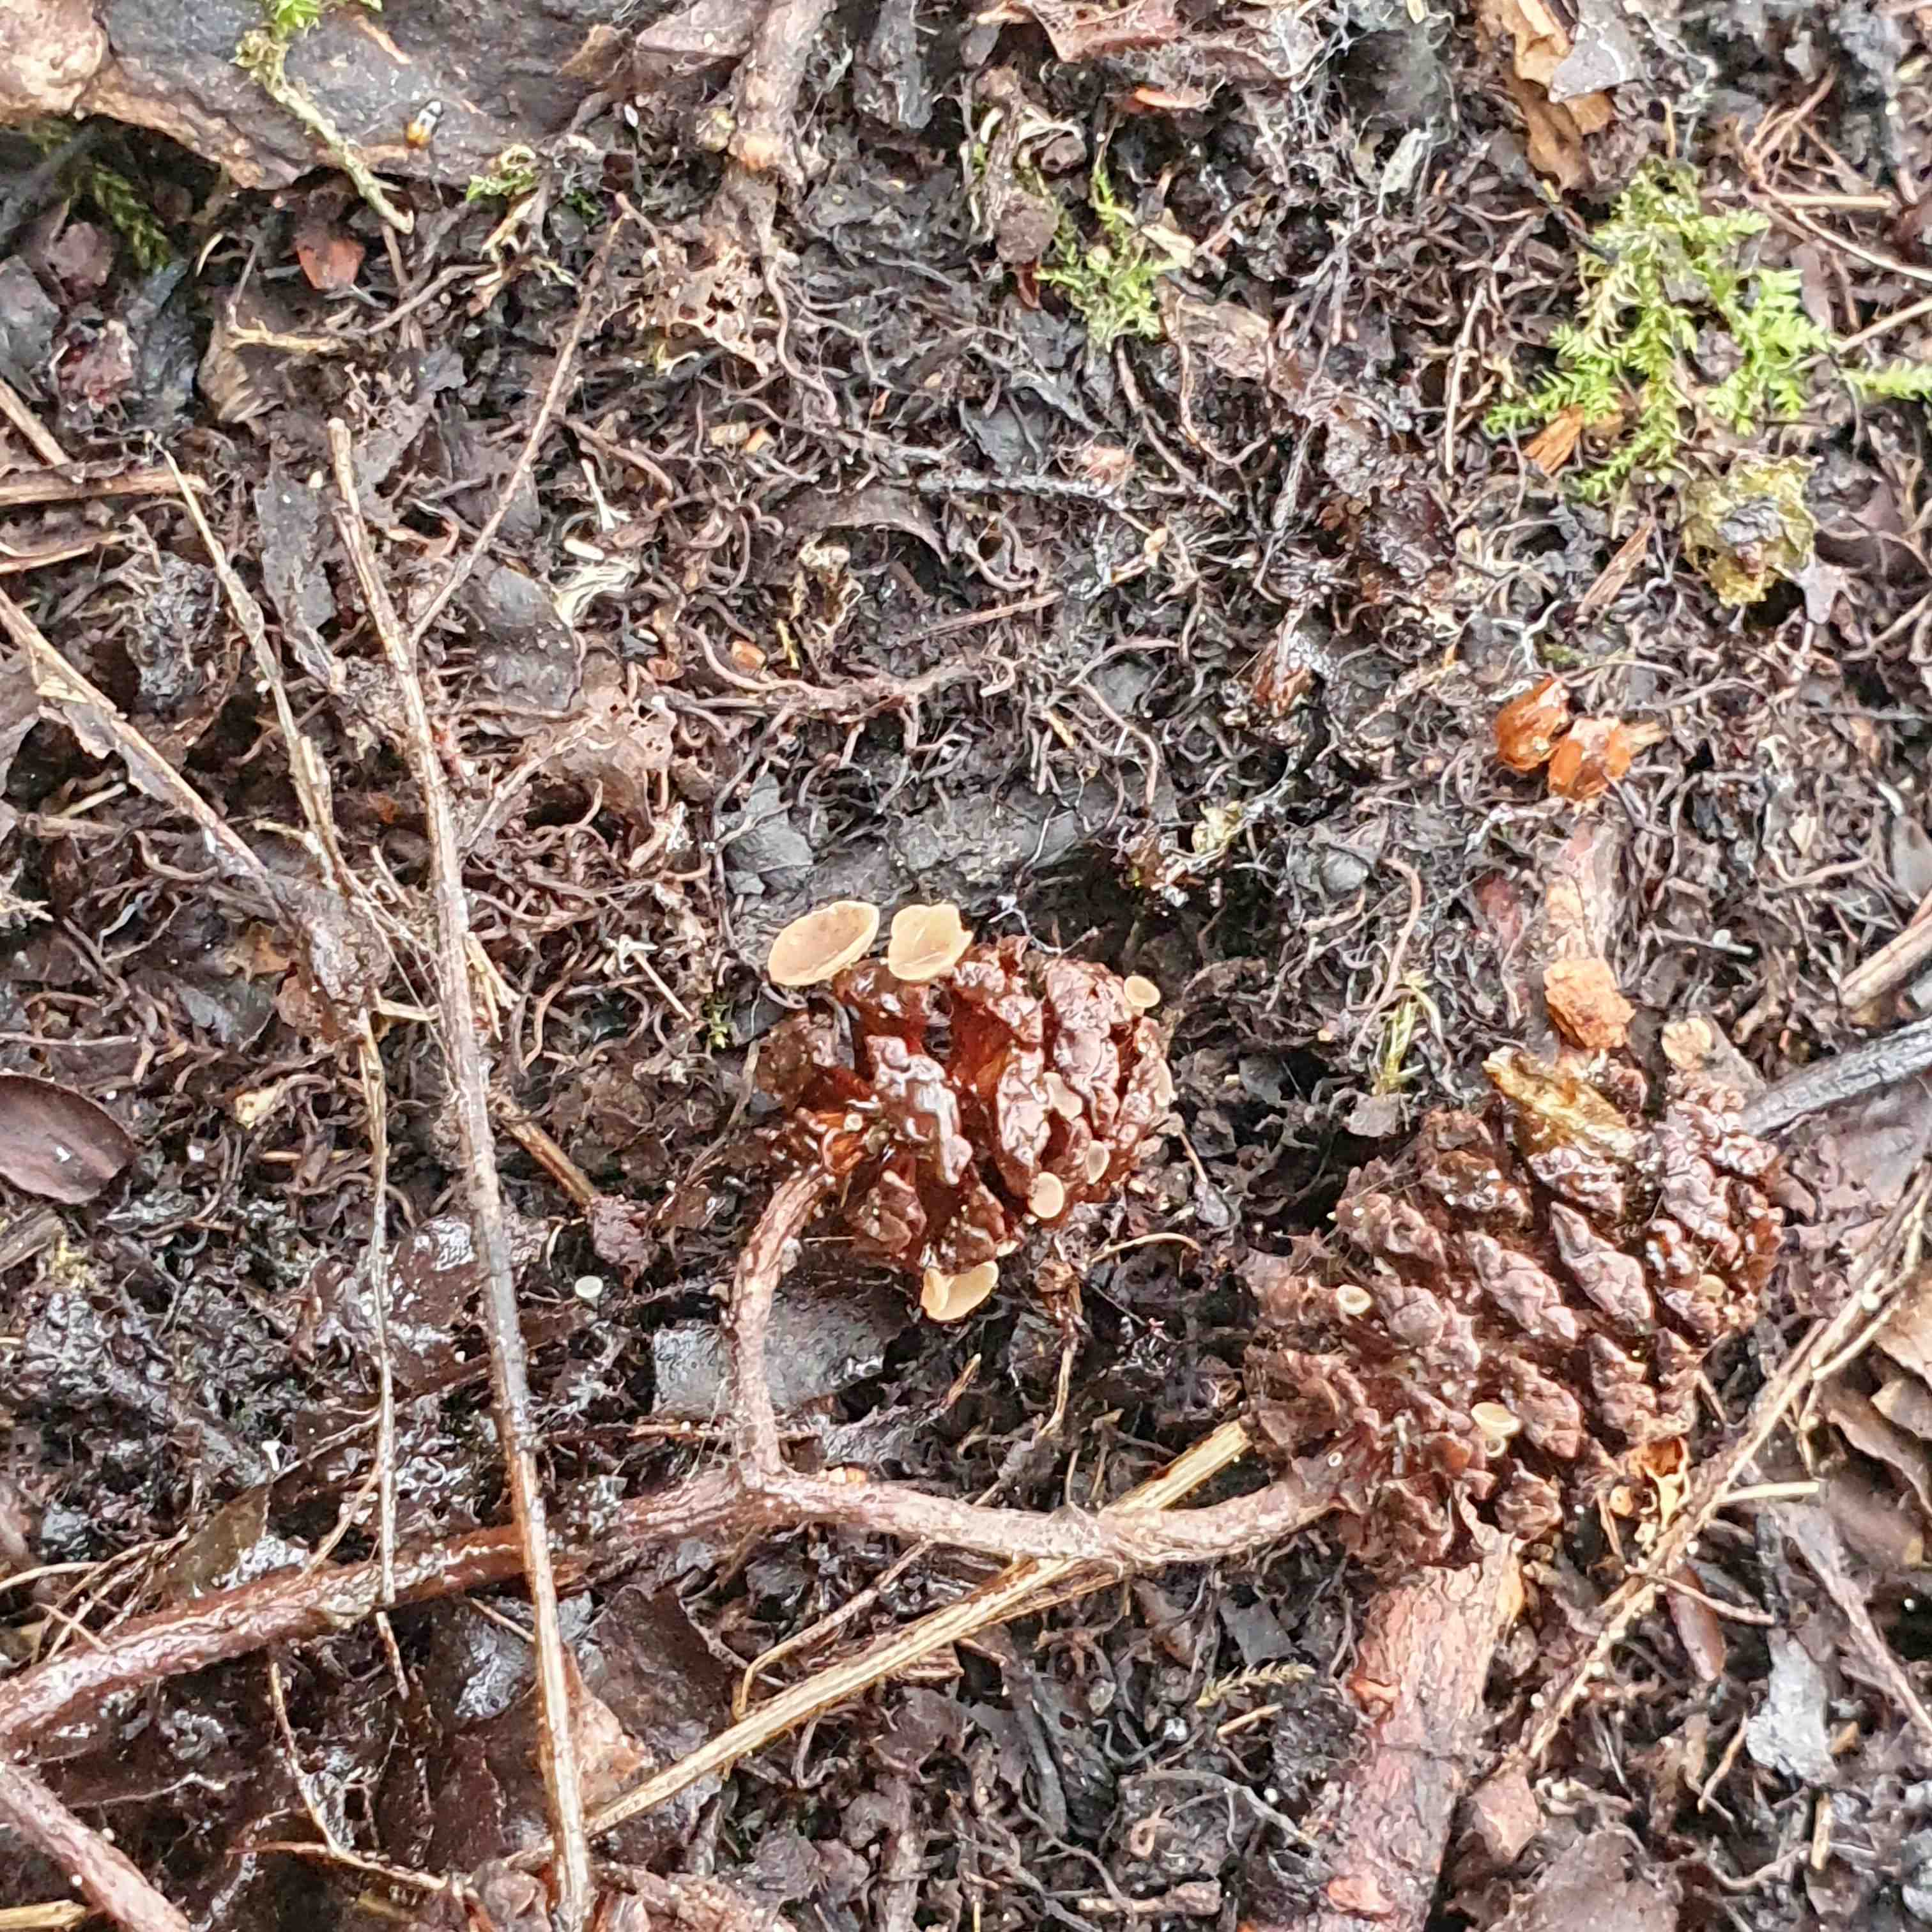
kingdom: Fungi
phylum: Ascomycota
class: Leotiomycetes
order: Helotiales
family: Sclerotiniaceae
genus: Ciboria
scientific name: Ciboria viridifusca
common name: ellekogle-knoldskive
